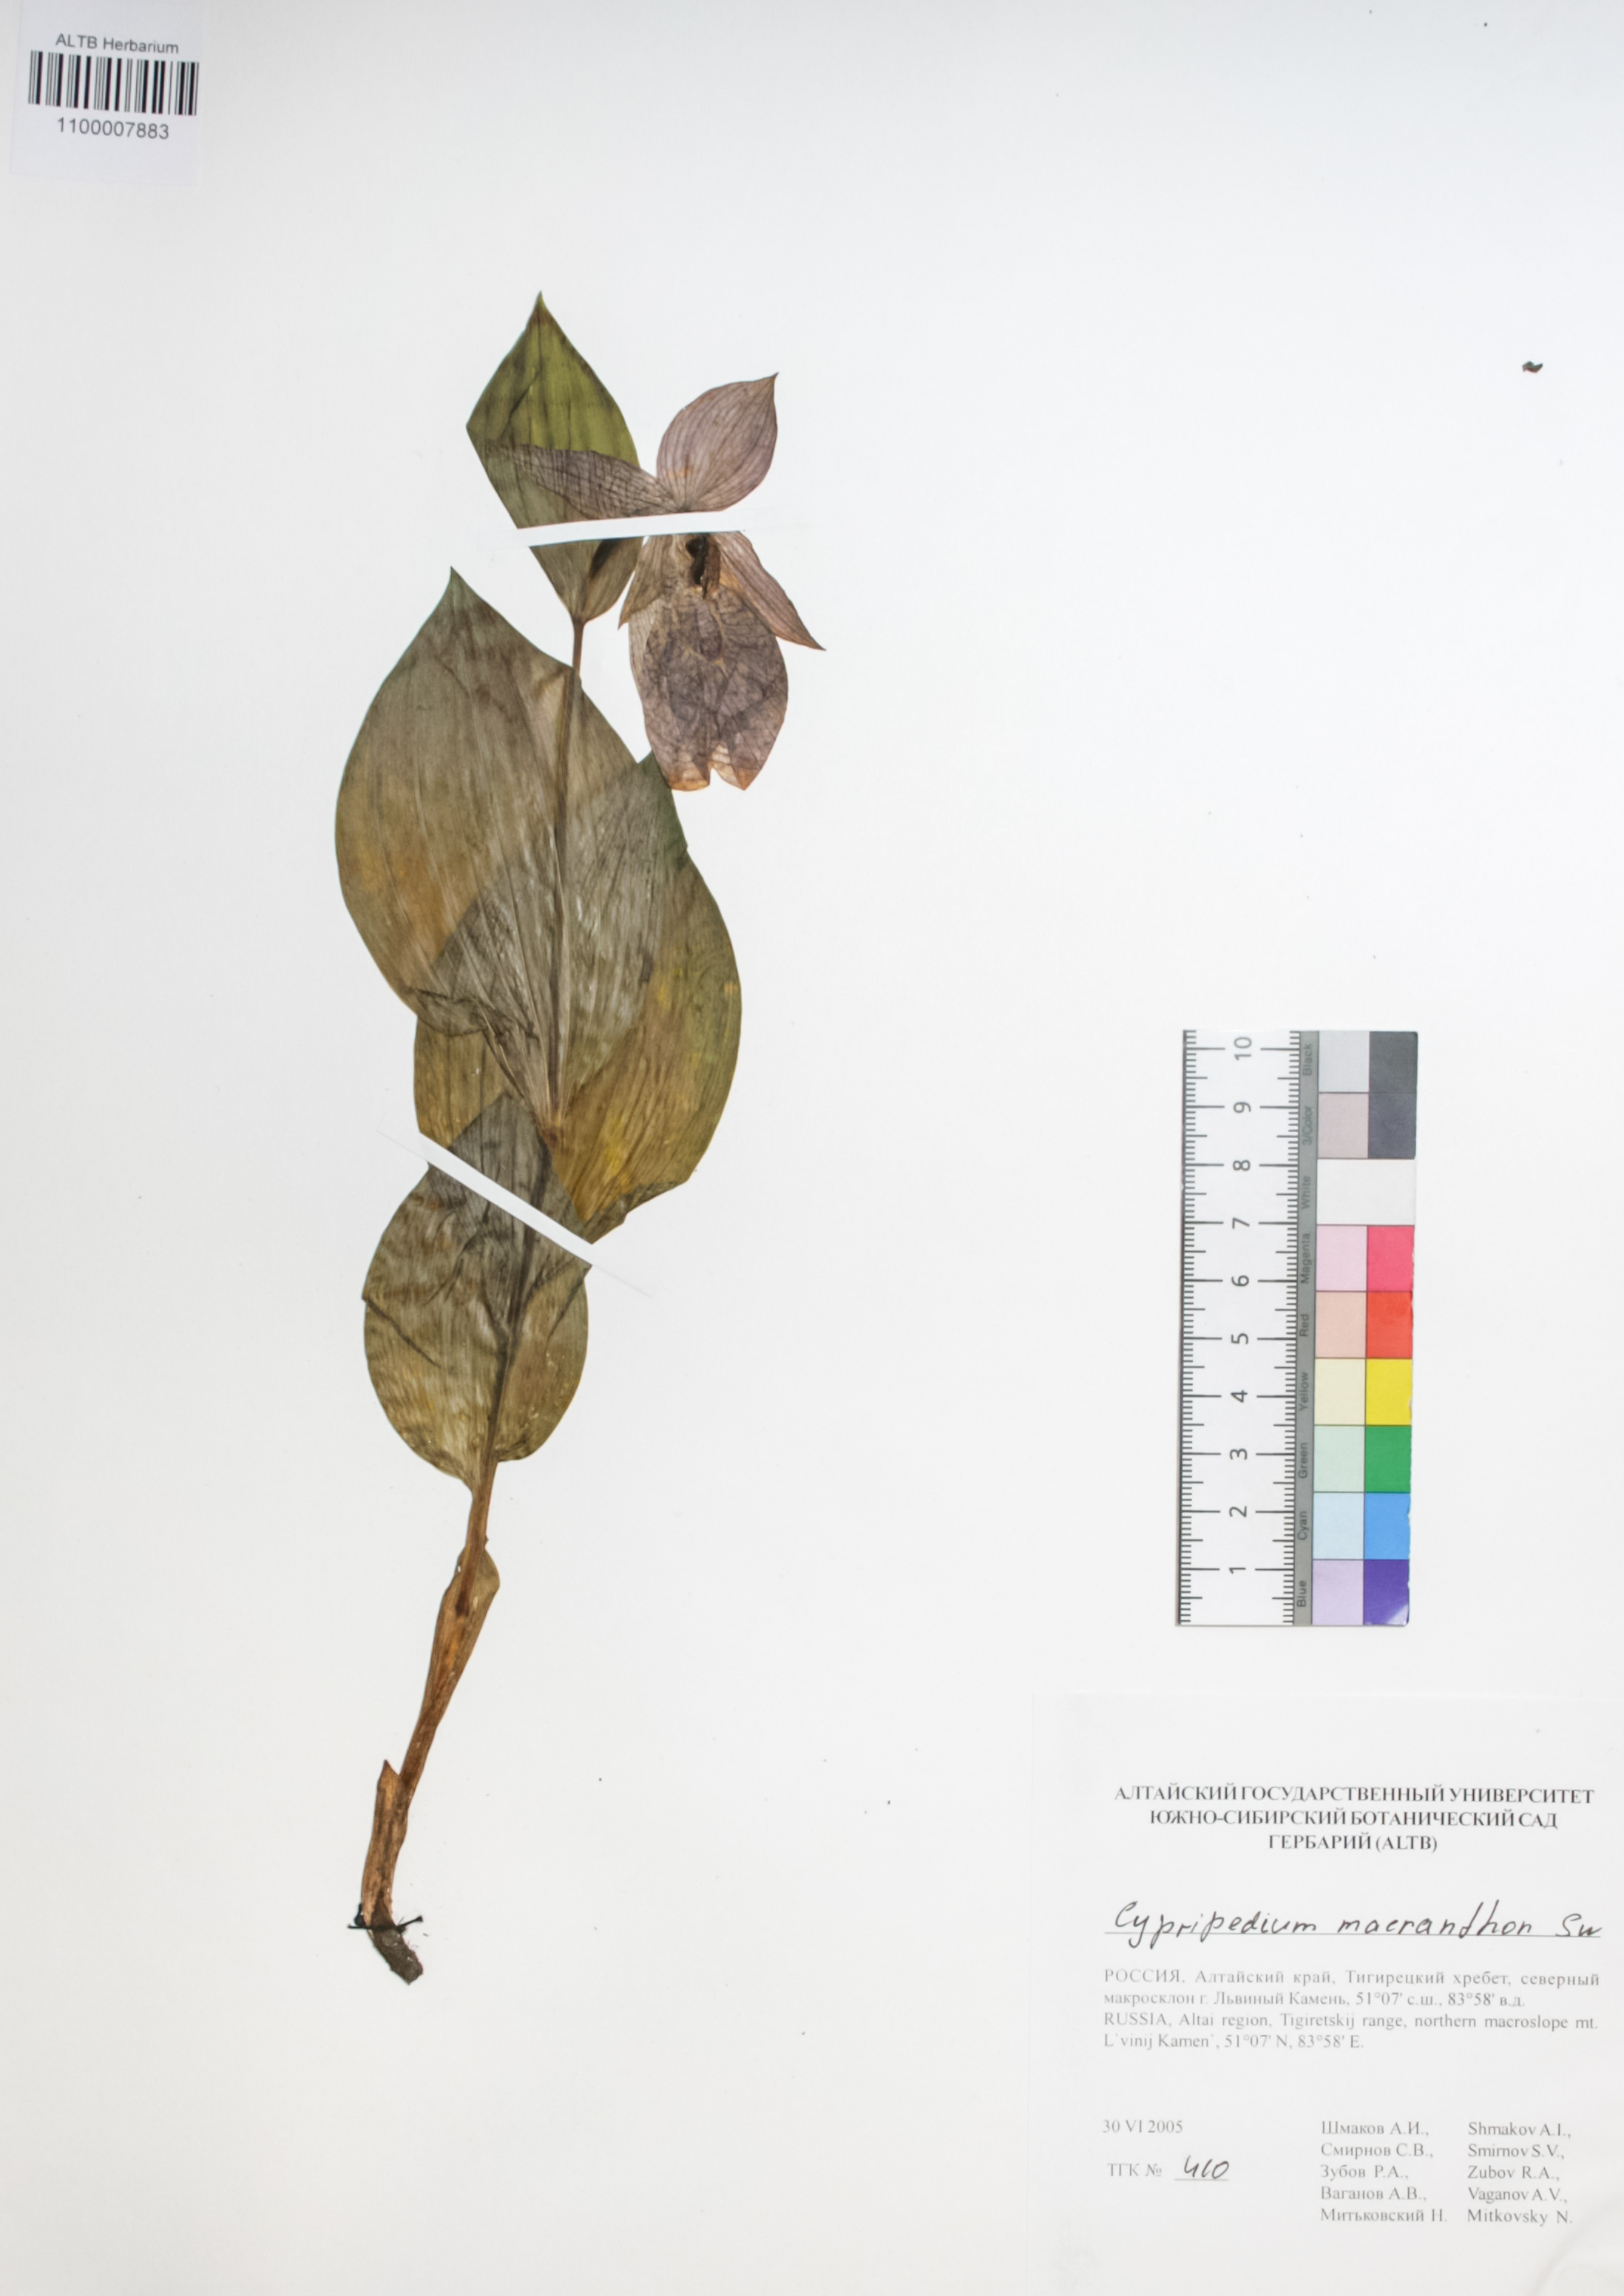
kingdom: Plantae
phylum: Tracheophyta
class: Liliopsida
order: Asparagales
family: Orchidaceae
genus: Cypripedium
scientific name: Cypripedium macranthon
